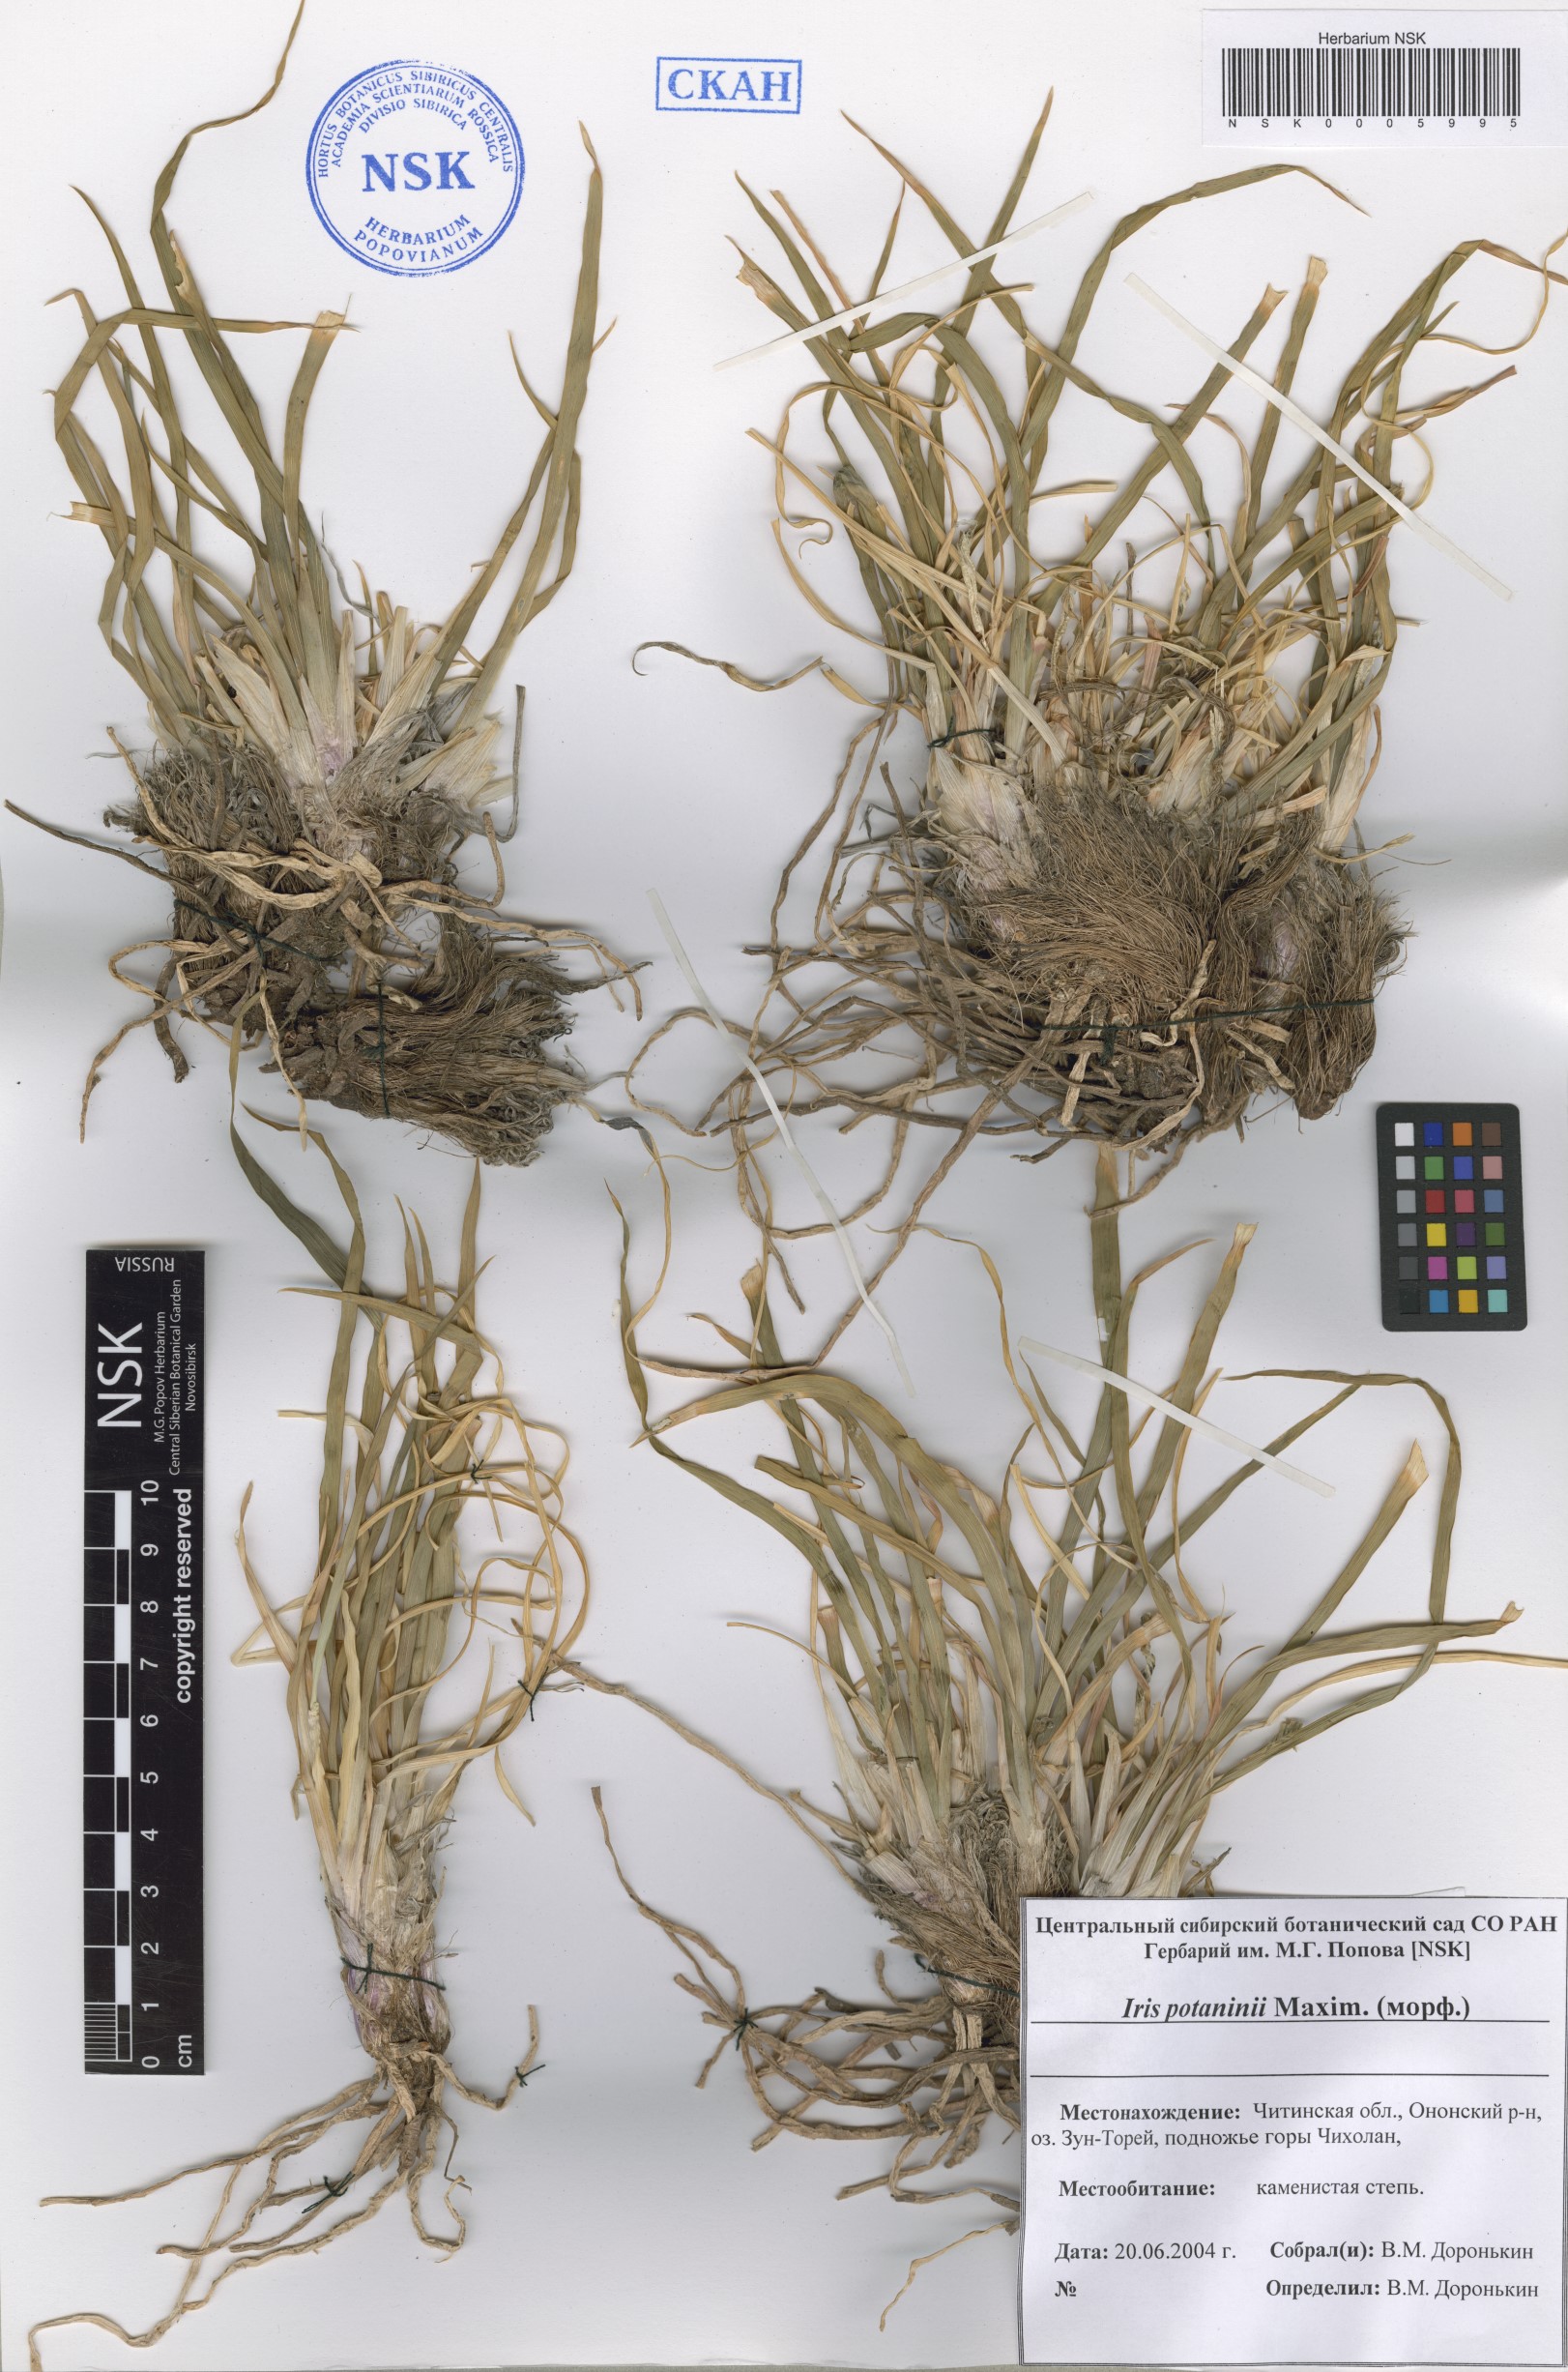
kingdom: Plantae
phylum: Tracheophyta
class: Liliopsida
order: Asparagales
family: Iridaceae
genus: Iris
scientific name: Iris potaninii
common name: Curl-sheath iris
